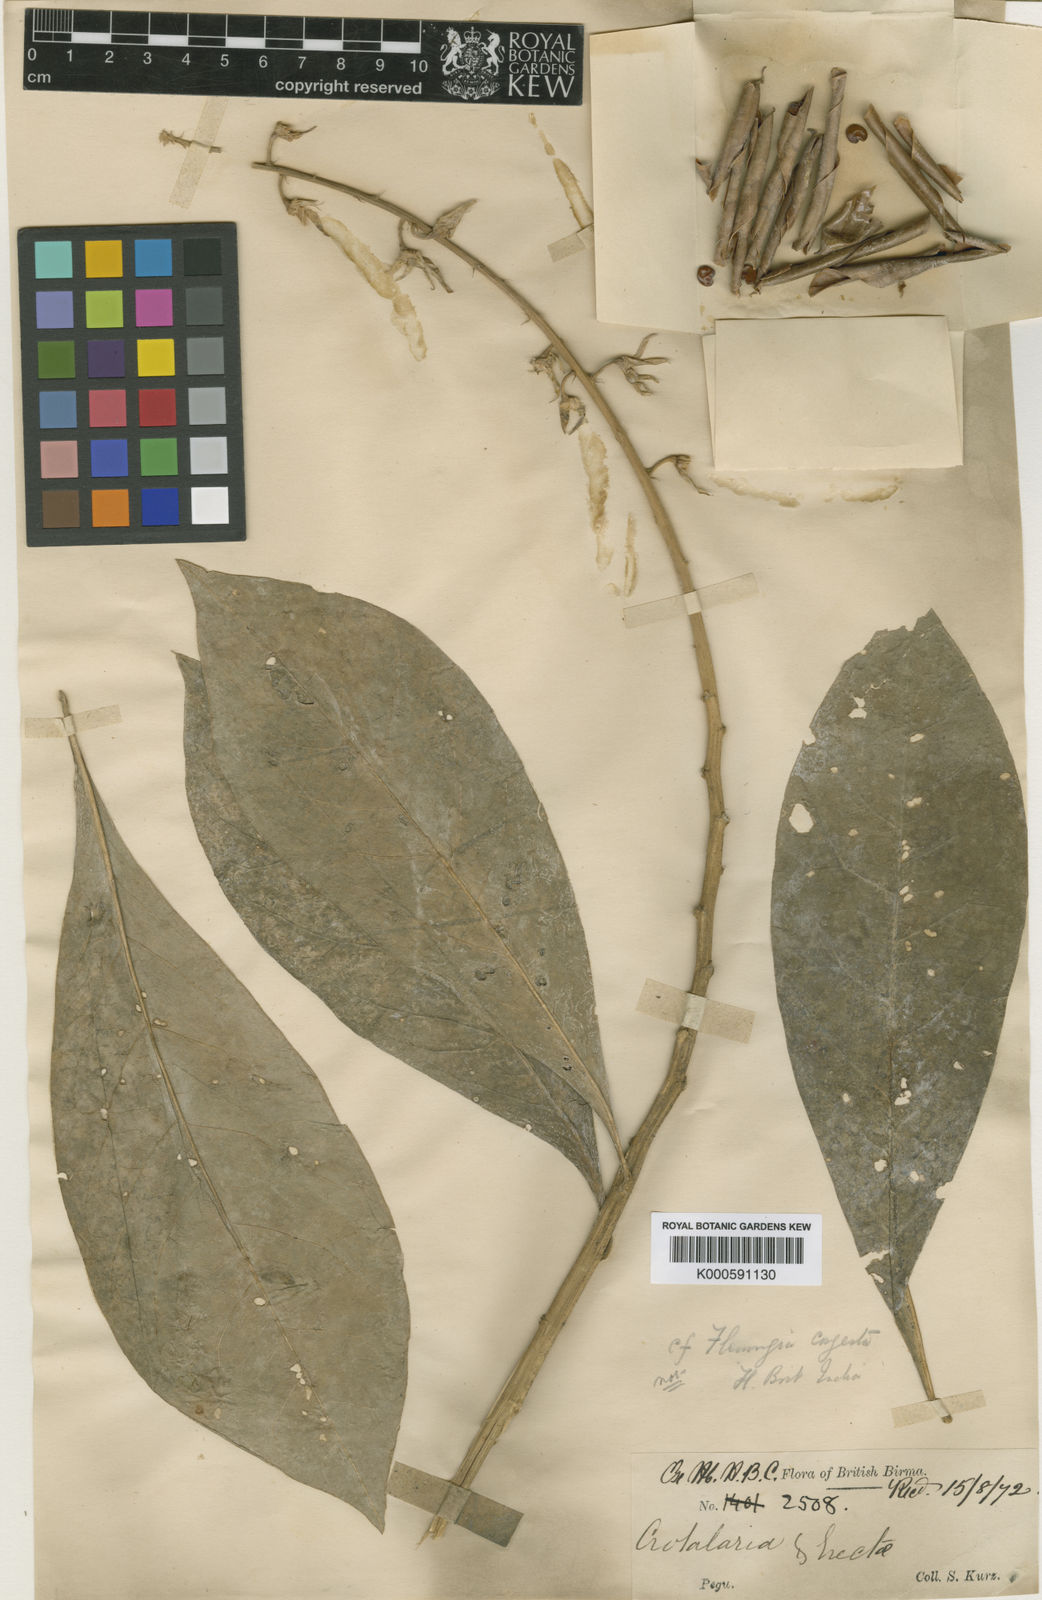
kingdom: Plantae
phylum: Tracheophyta
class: Magnoliopsida
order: Fabales
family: Fabaceae
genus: Crotalaria
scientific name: Crotalaria sulphizii
